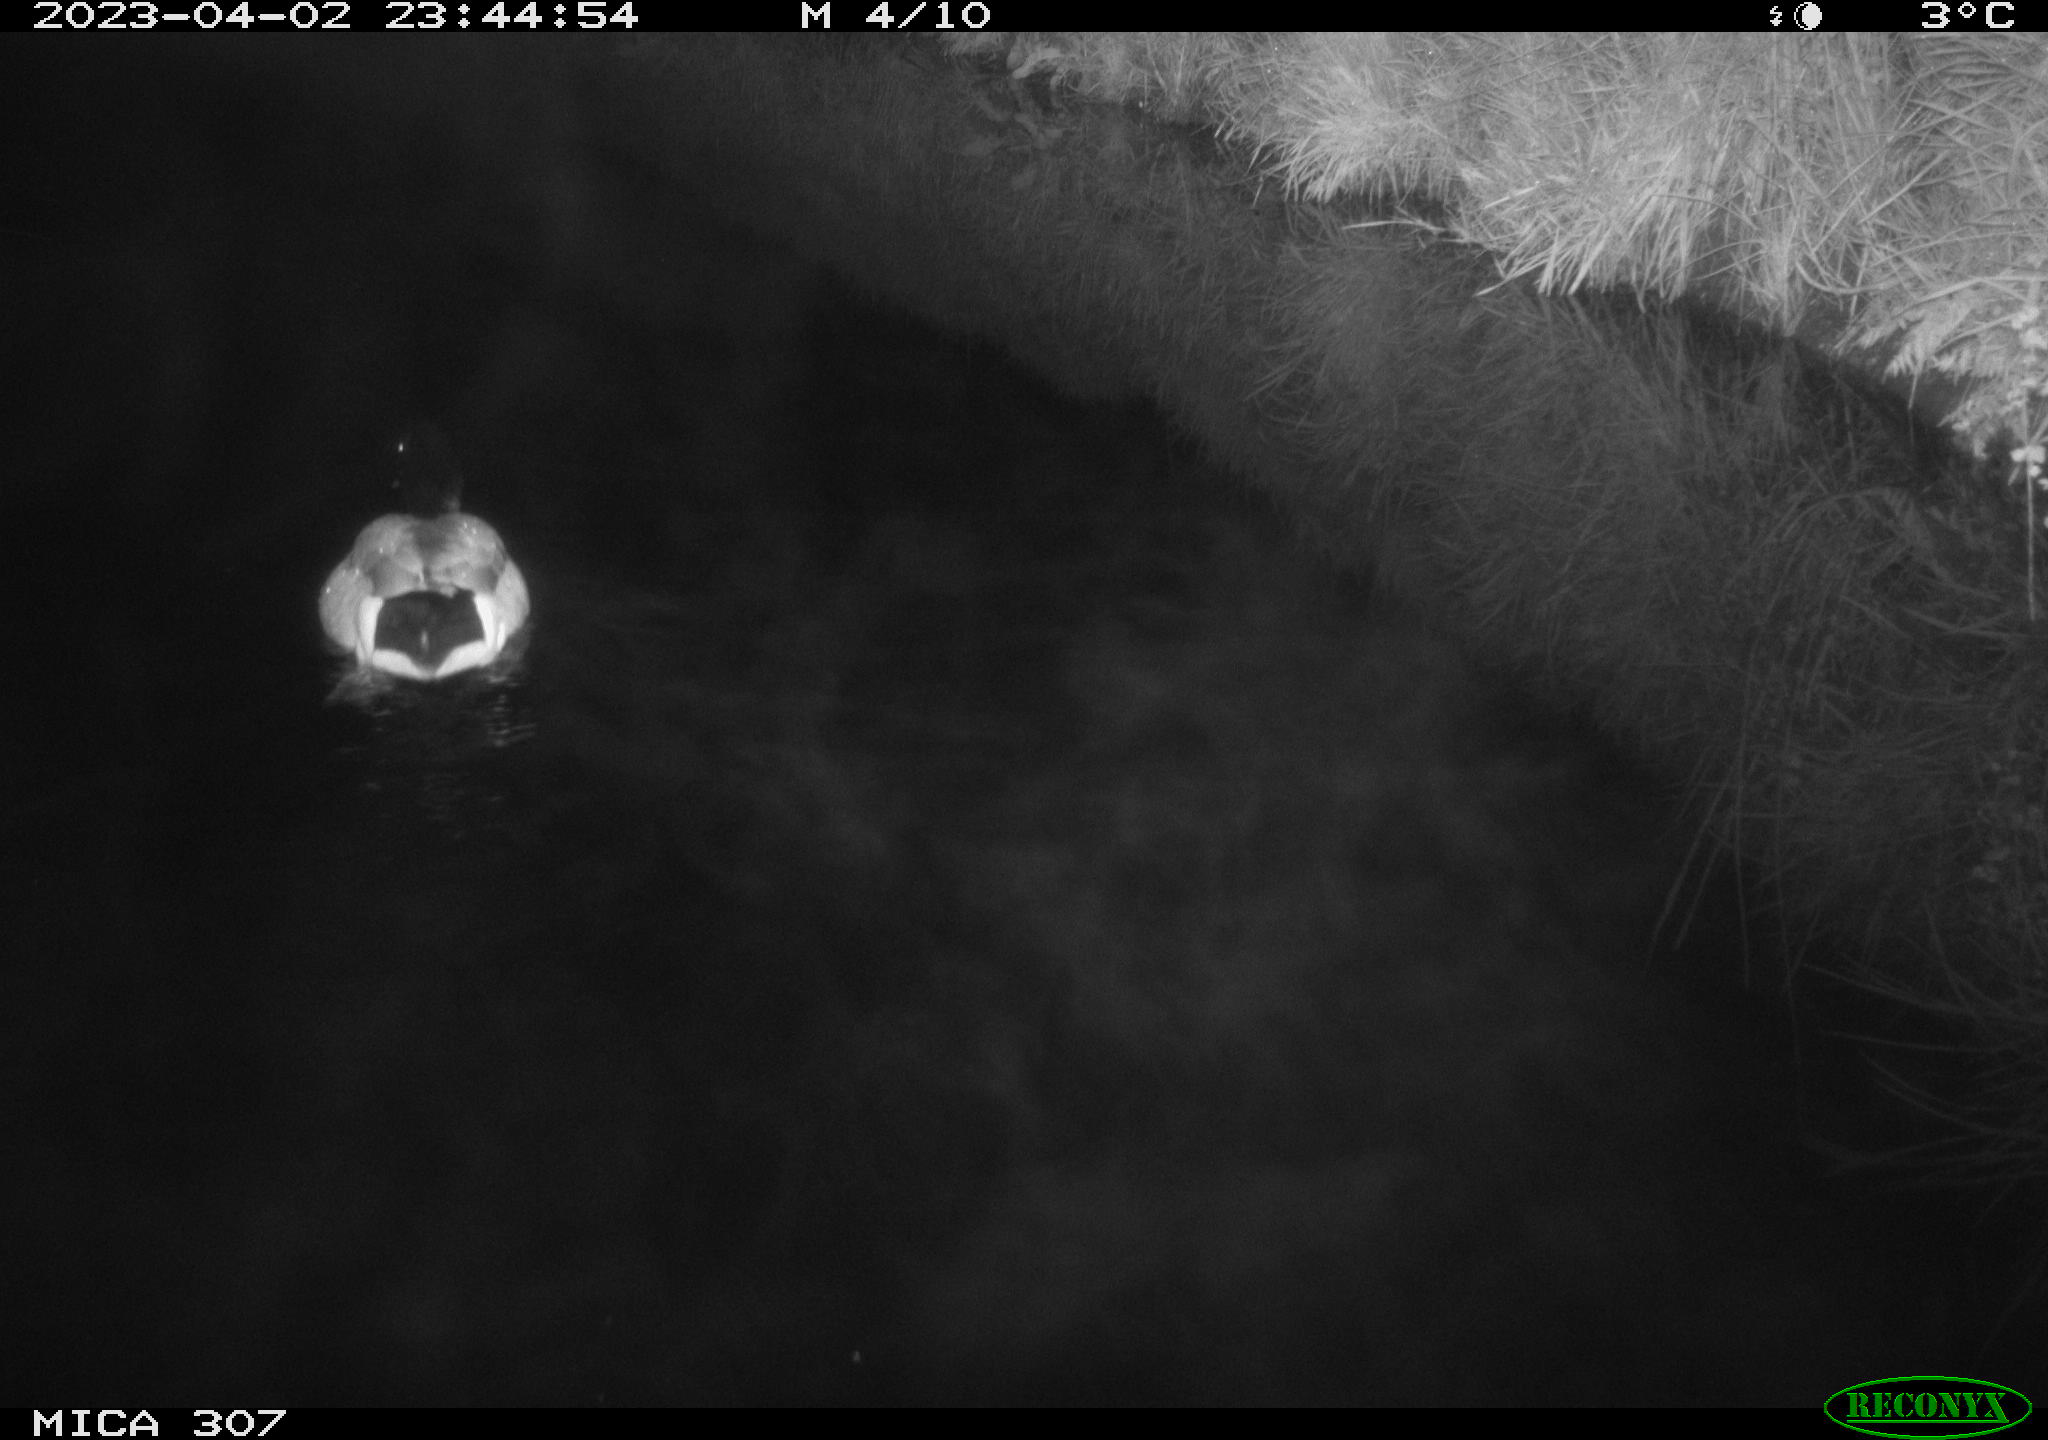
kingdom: Animalia
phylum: Chordata
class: Aves
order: Anseriformes
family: Anatidae
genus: Anas
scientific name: Anas
